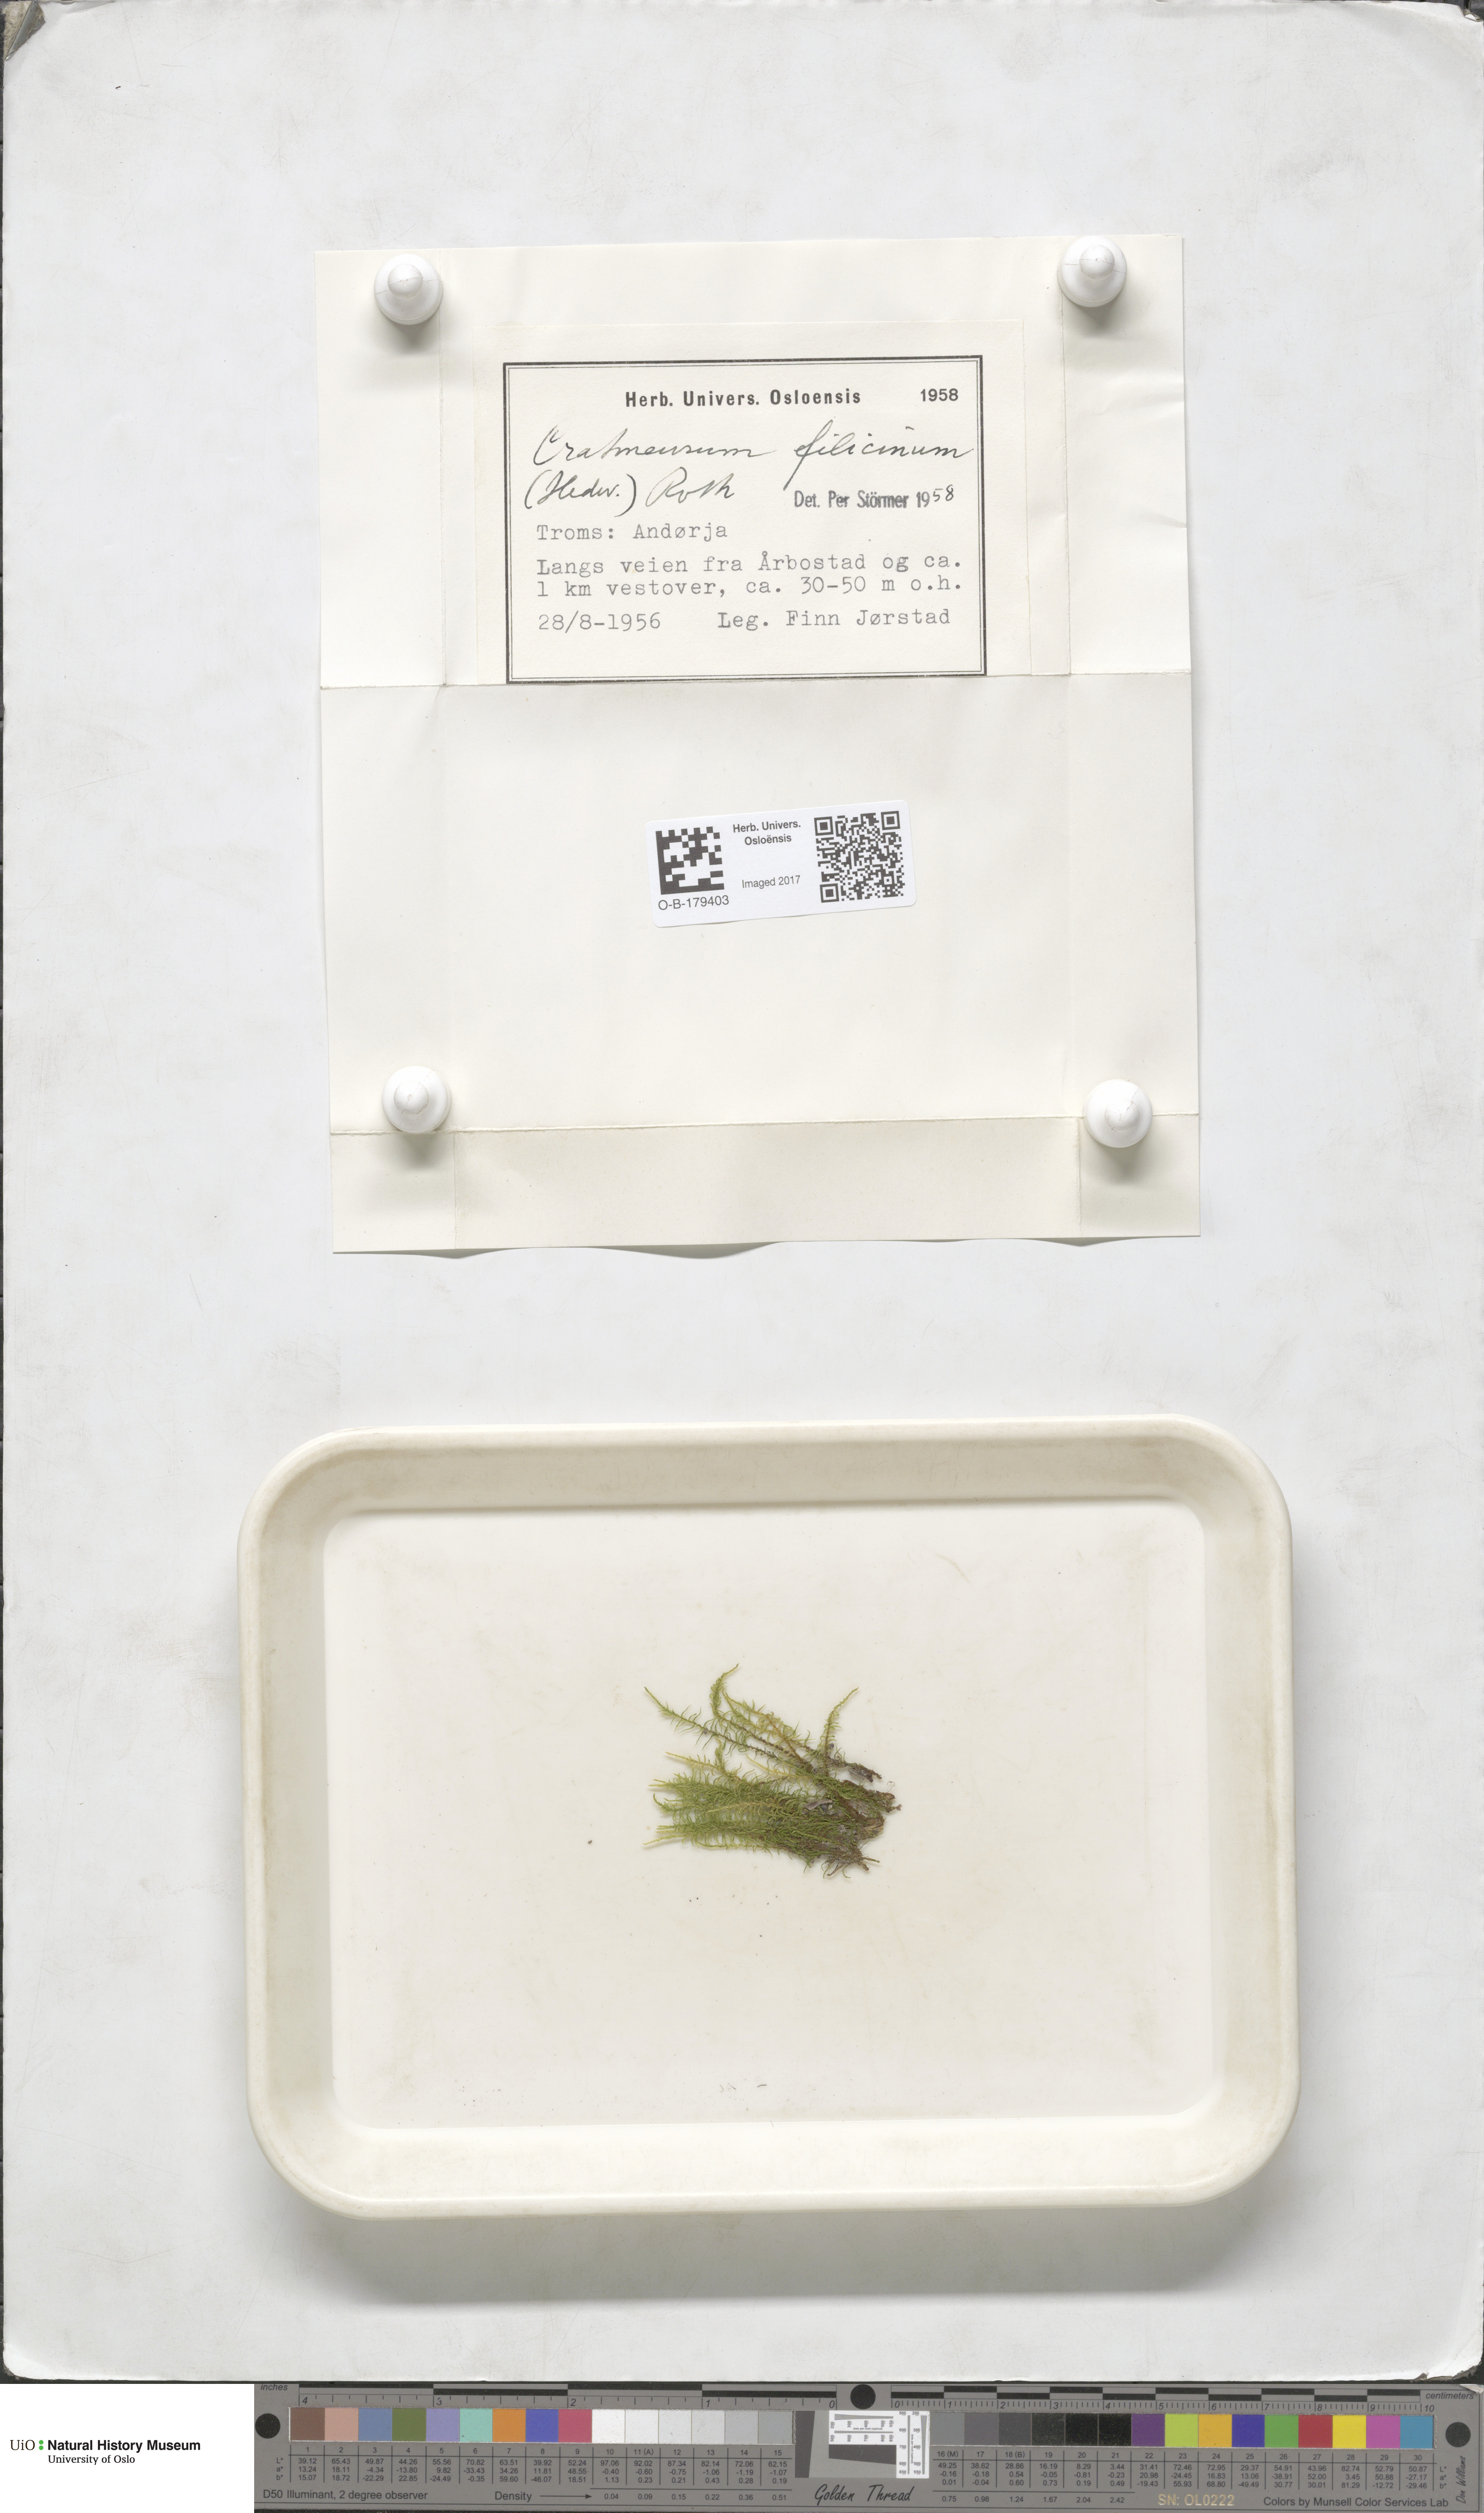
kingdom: Plantae
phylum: Bryophyta
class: Bryopsida
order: Hypnales
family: Amblystegiaceae
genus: Cratoneuron
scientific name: Cratoneuron filicinum
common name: Fern-leaved hook moss
